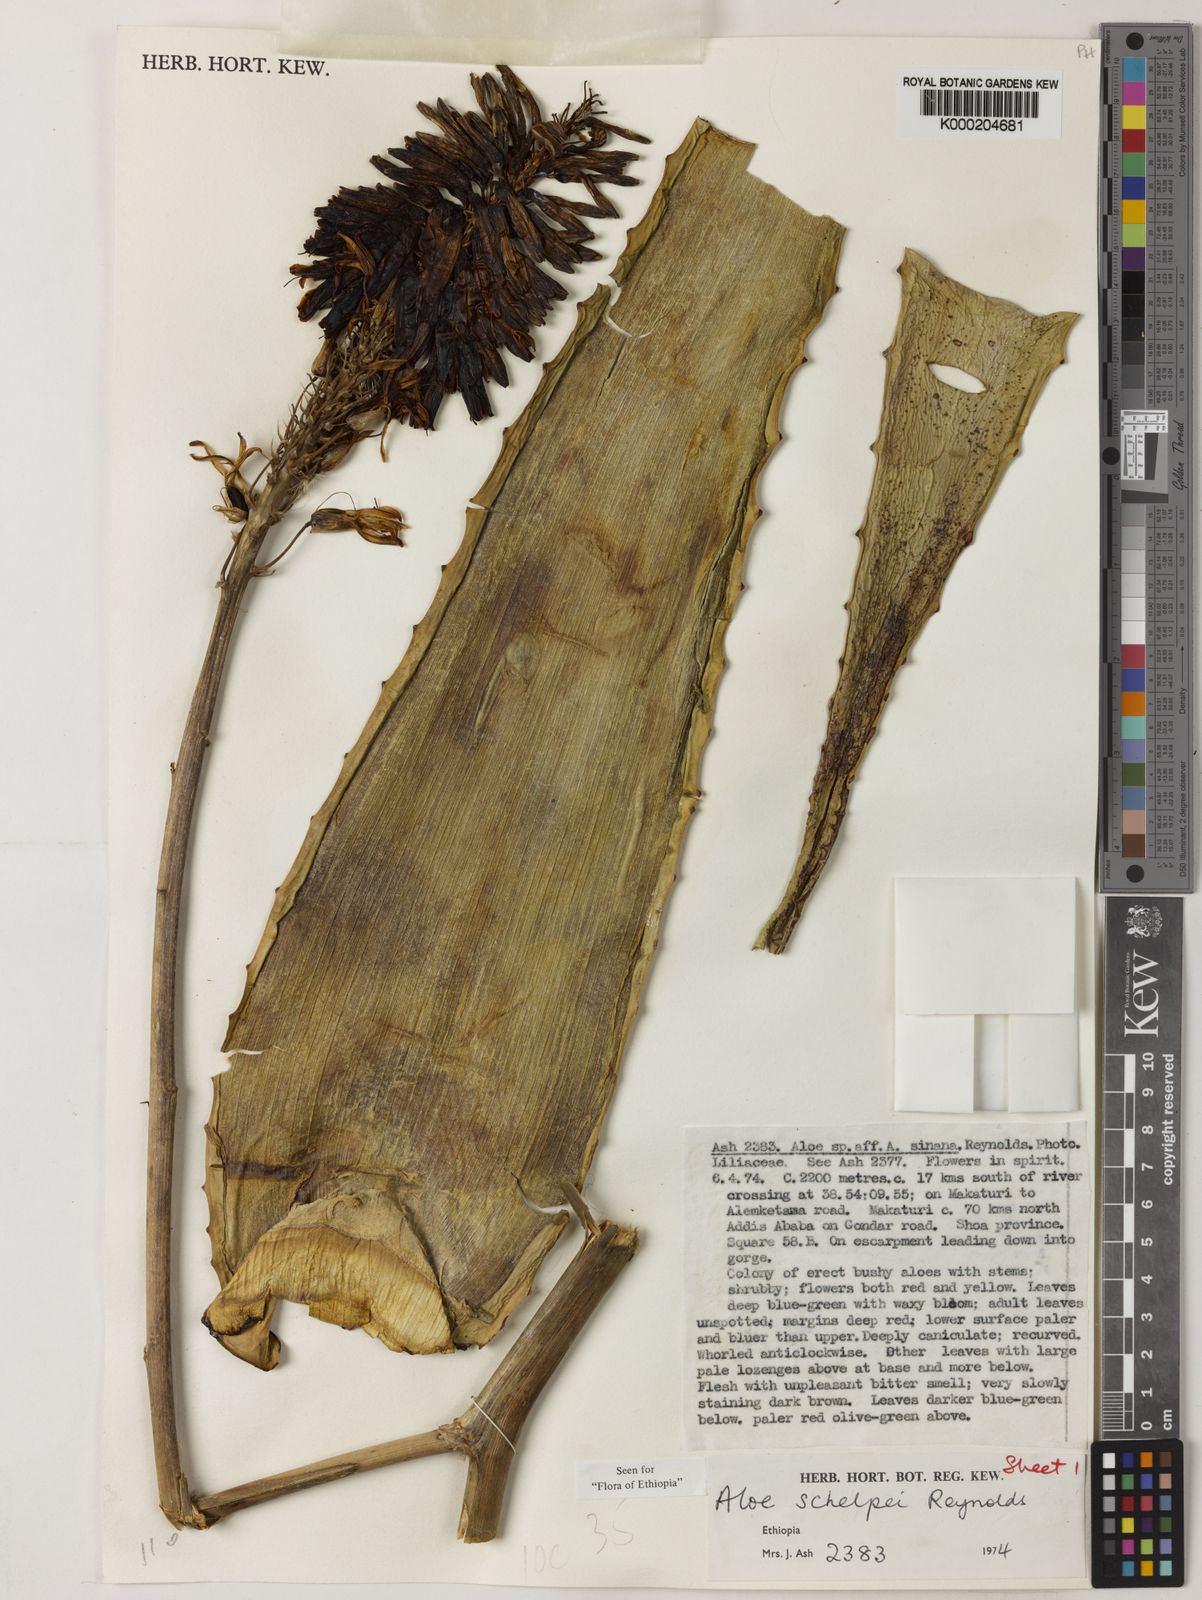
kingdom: Plantae
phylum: Tracheophyta
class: Liliopsida
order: Asparagales
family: Asphodelaceae
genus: Aloe
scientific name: Aloe schelpei
